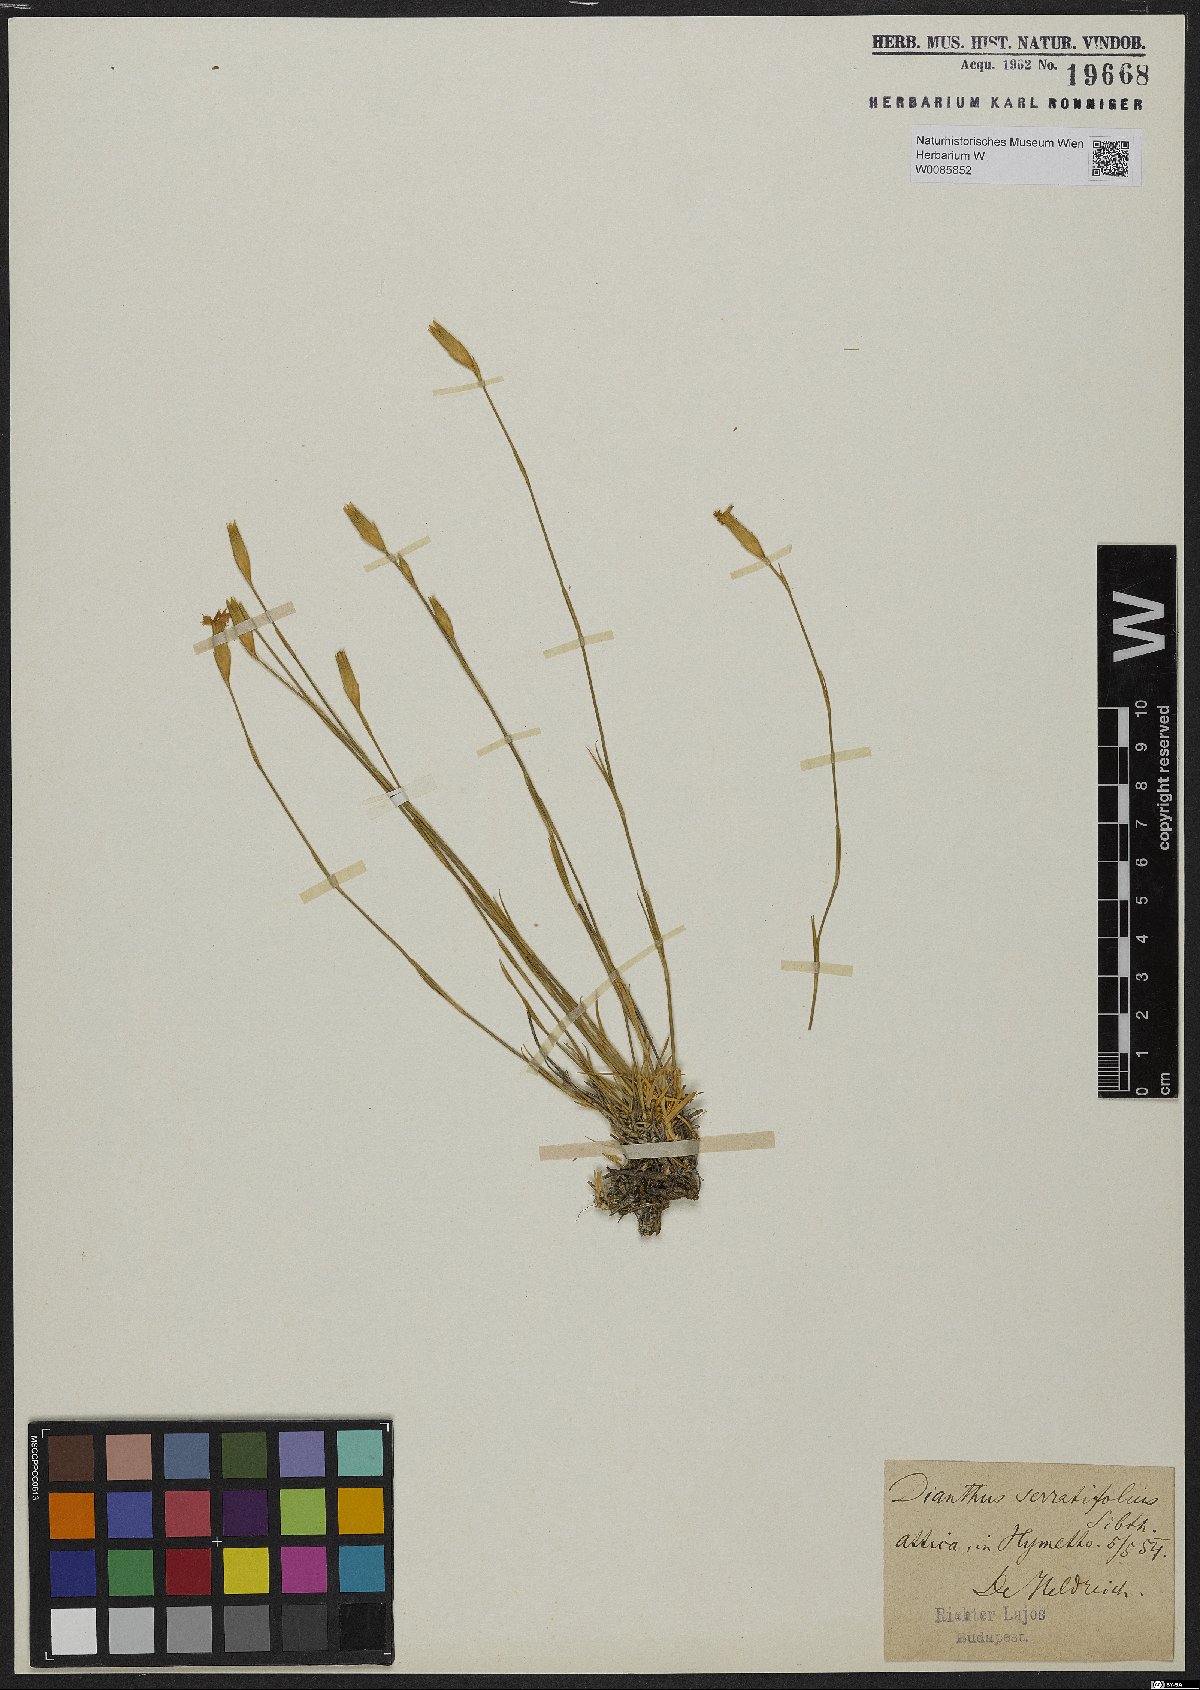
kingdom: Plantae
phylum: Tracheophyta
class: Magnoliopsida
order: Caryophyllales
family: Caryophyllaceae
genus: Dianthus
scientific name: Dianthus serratifolius
